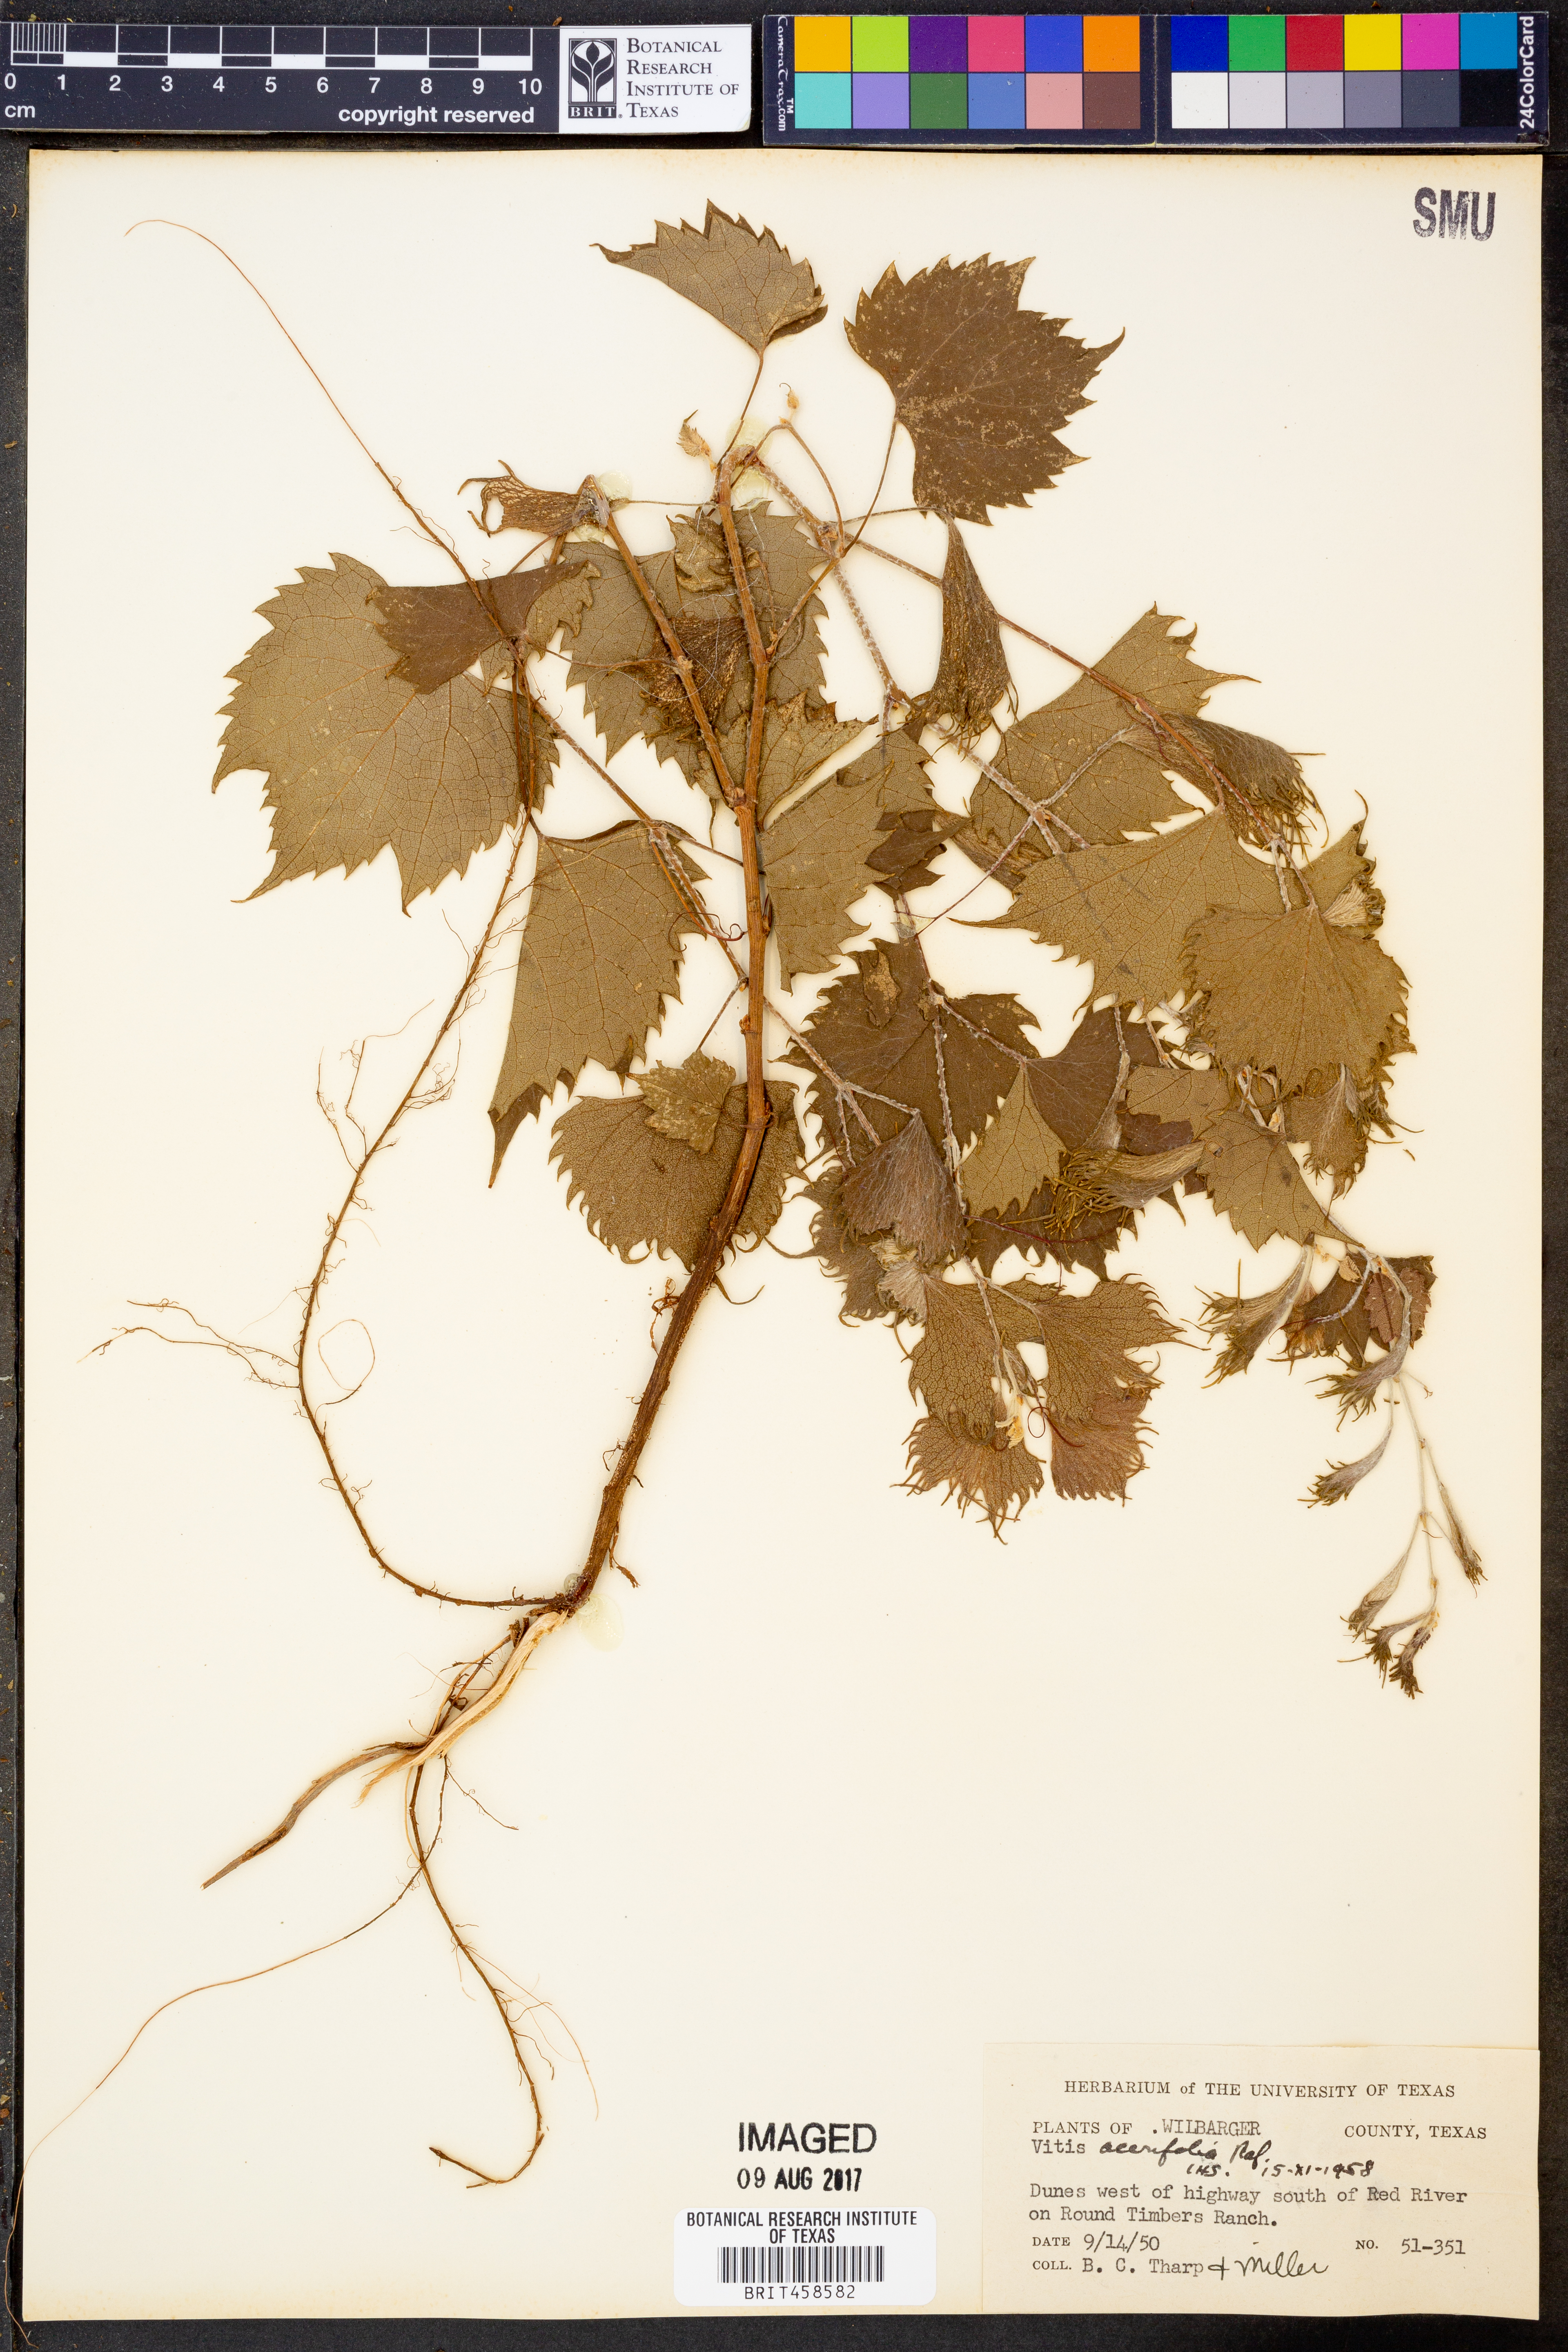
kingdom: Plantae
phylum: Tracheophyta
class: Magnoliopsida
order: Vitales
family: Vitaceae
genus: Vitis
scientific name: Vitis acerifolia
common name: Bush grape
